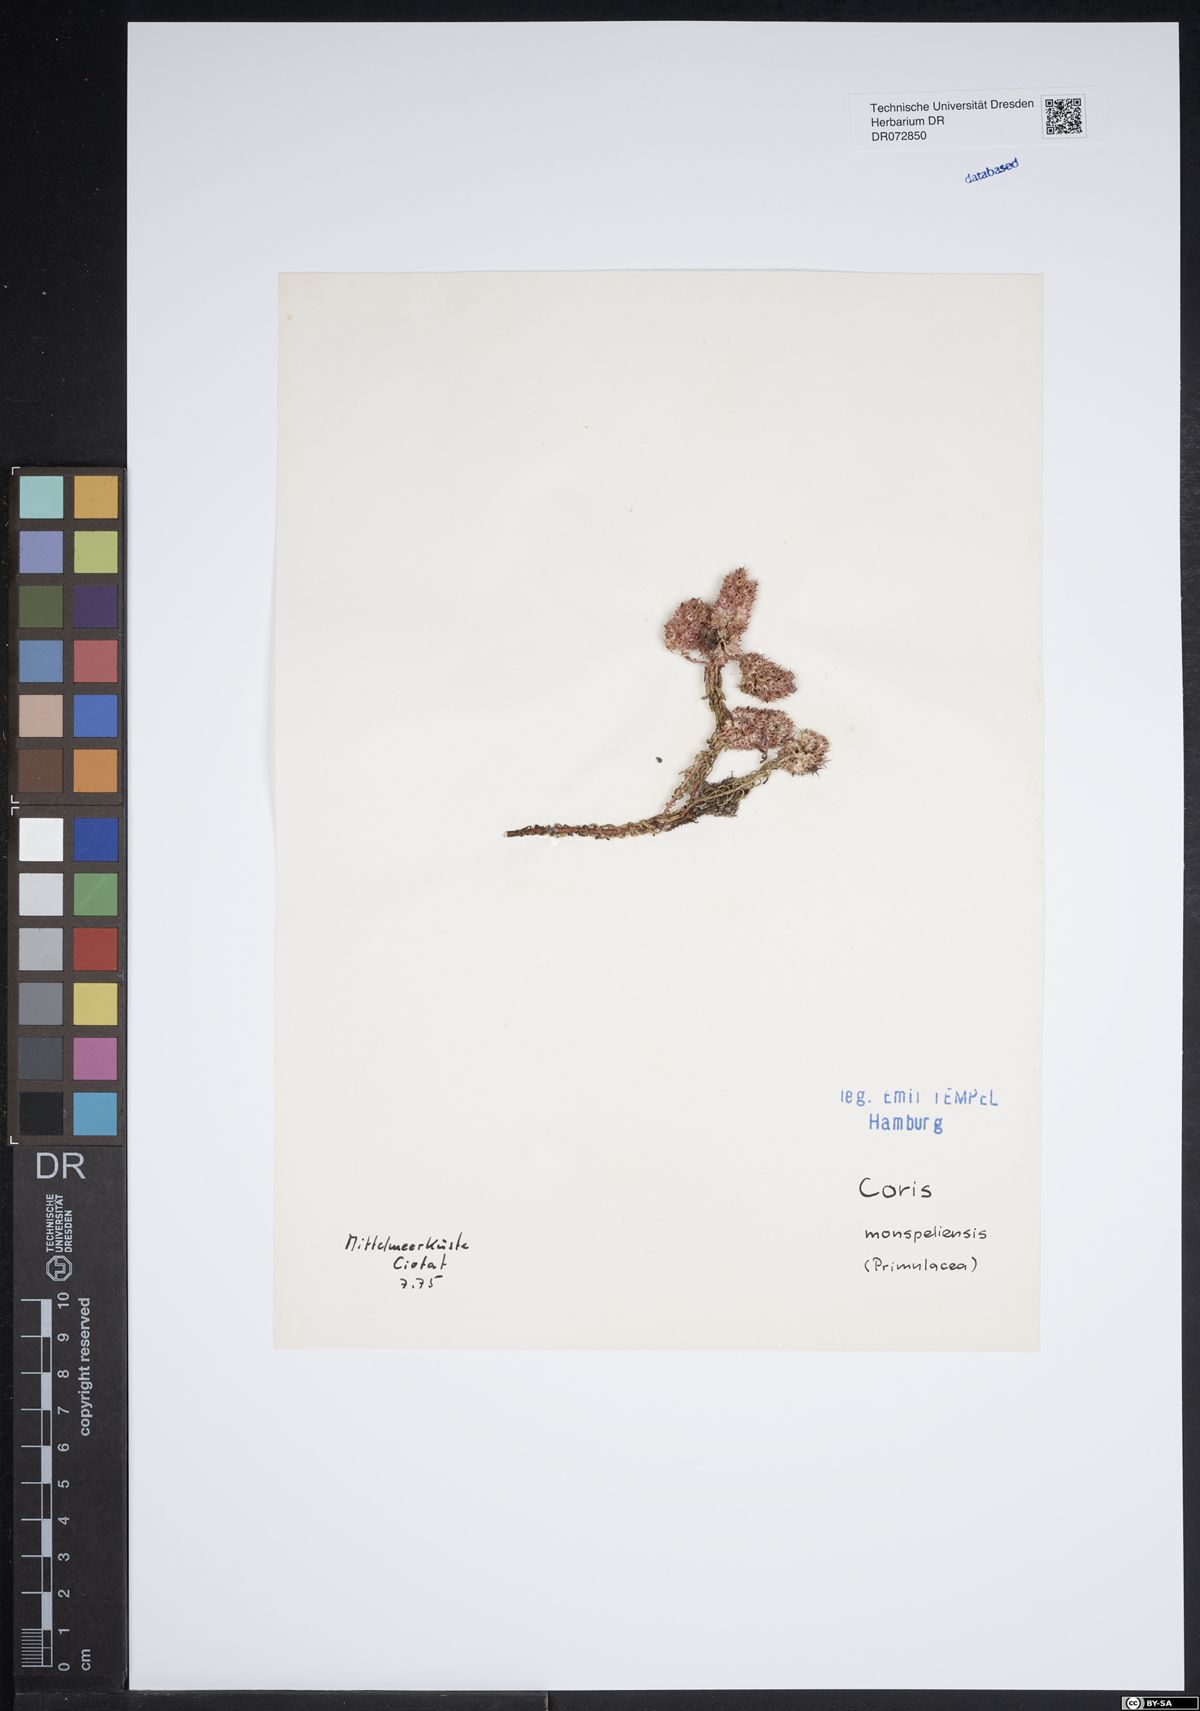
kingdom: Plantae
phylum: Tracheophyta
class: Magnoliopsida
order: Ericales
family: Primulaceae
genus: Coris
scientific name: Coris monspeliensis
